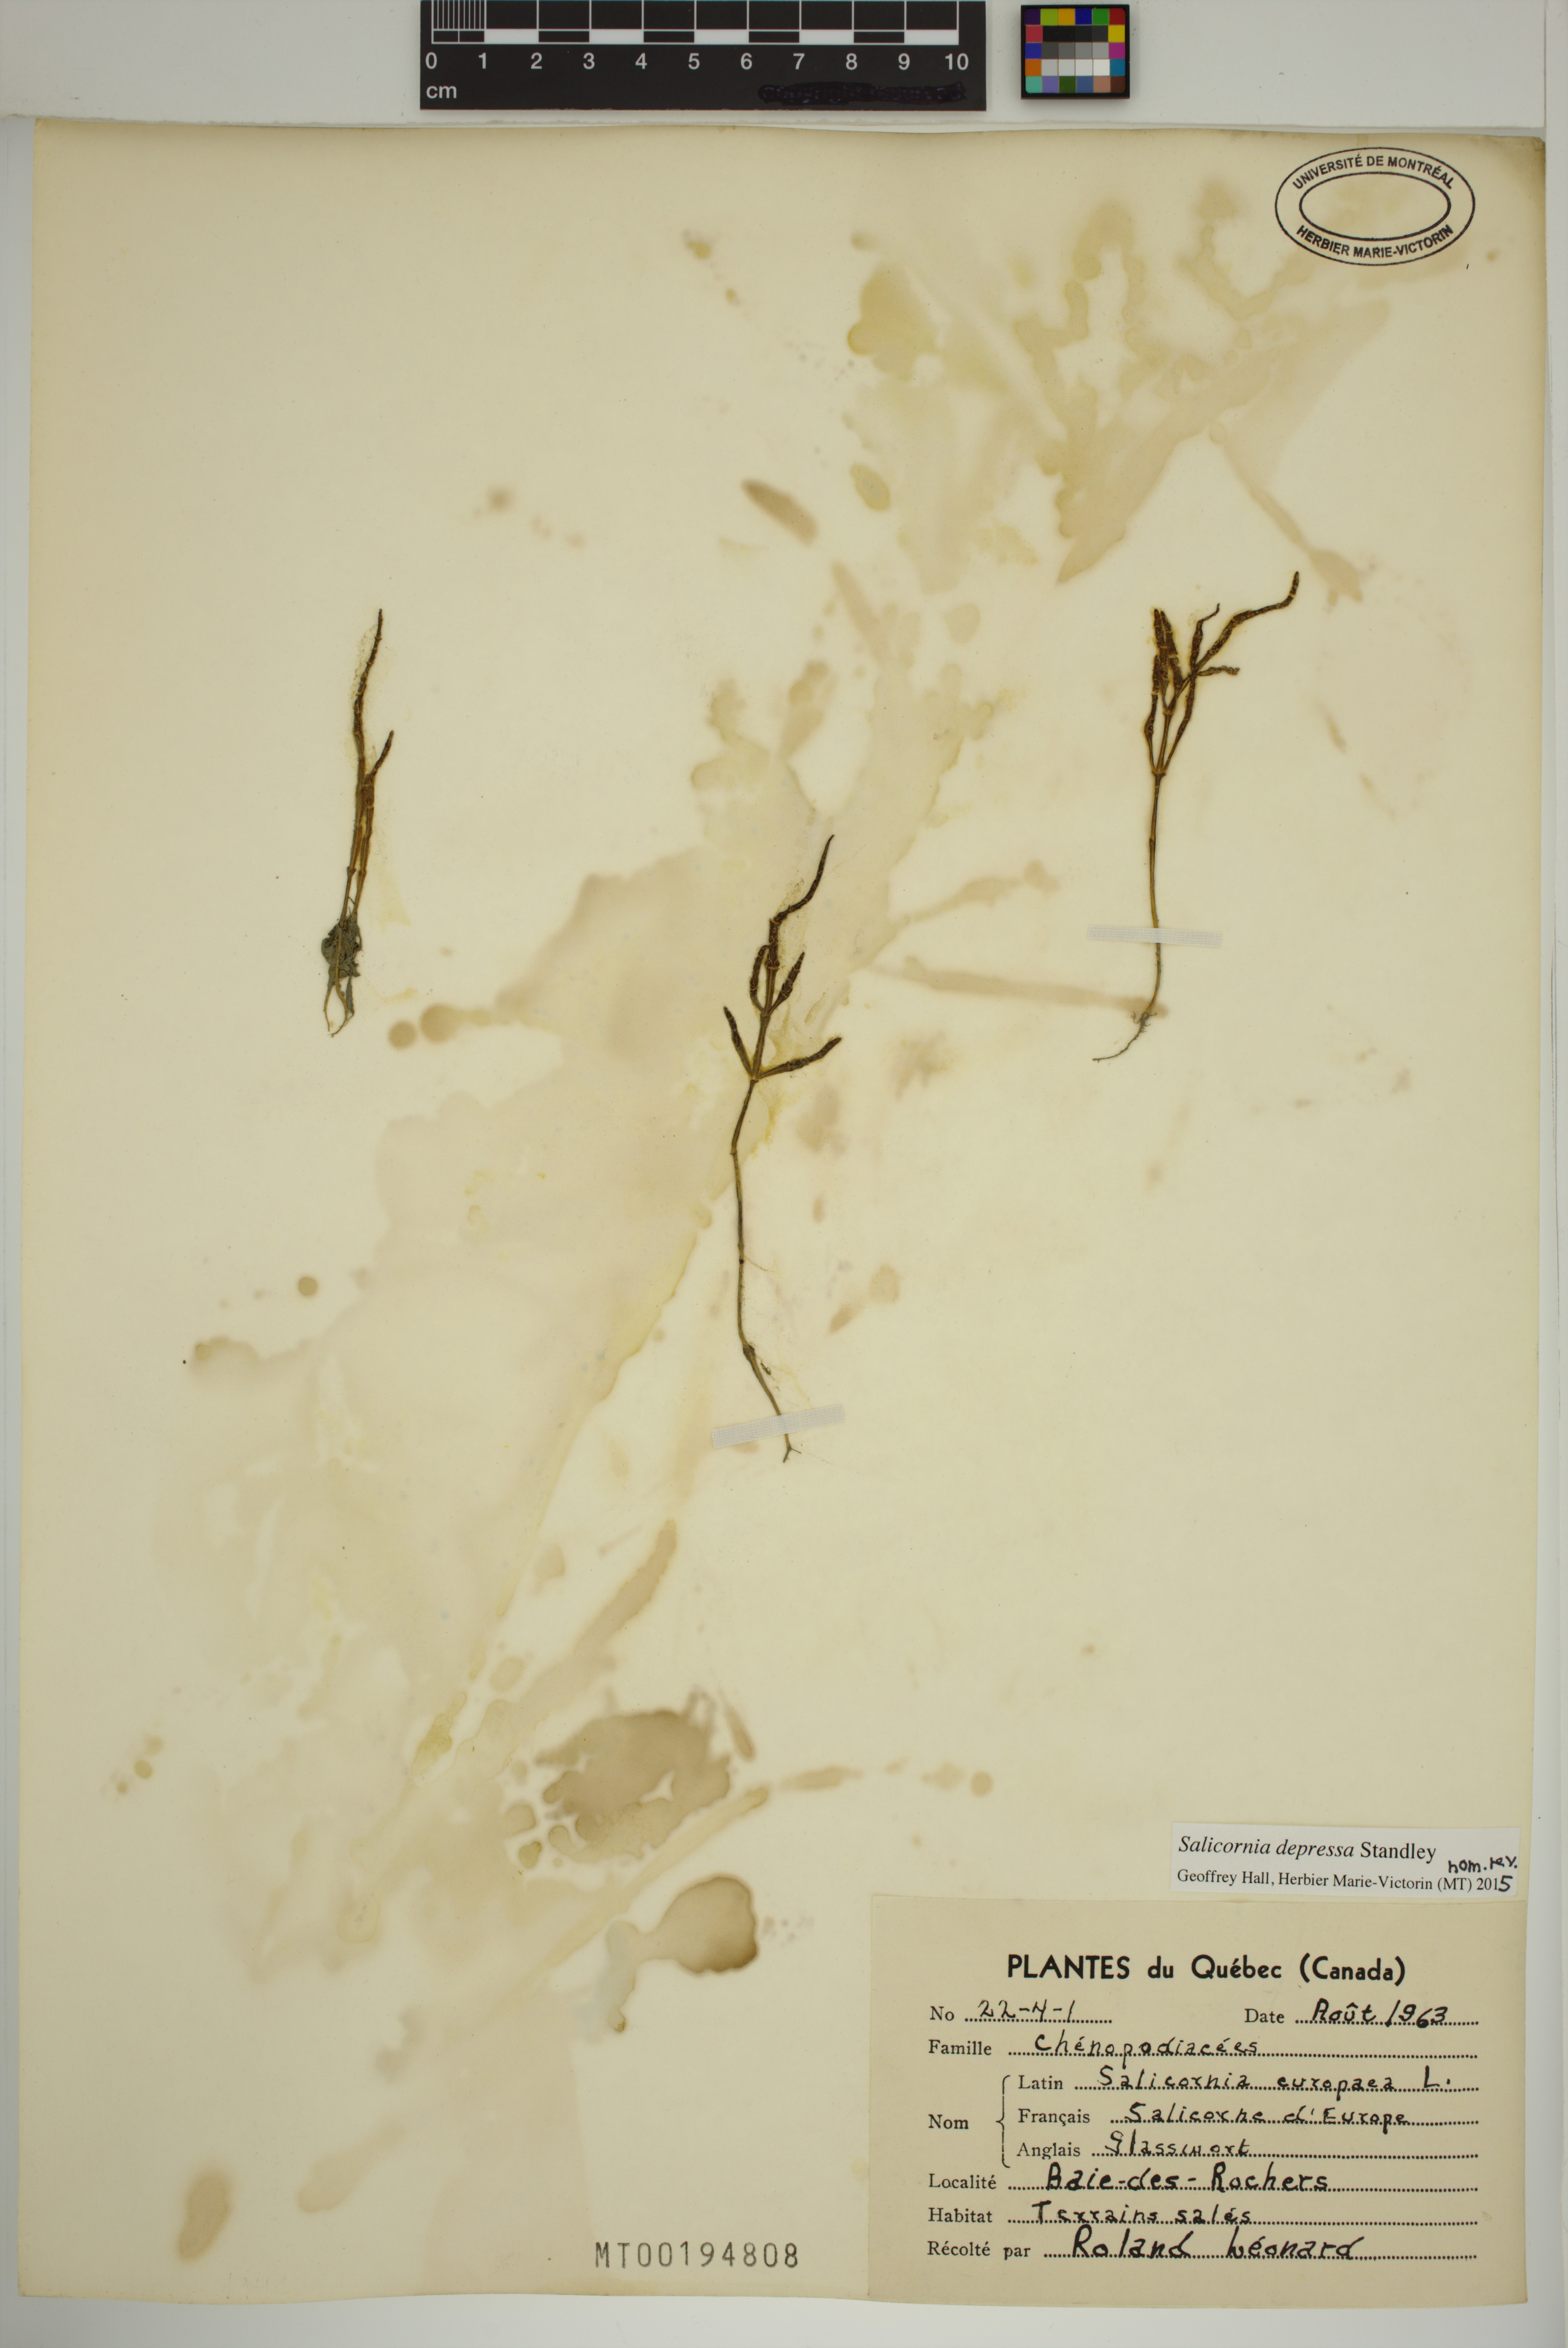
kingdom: Plantae
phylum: Tracheophyta
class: Magnoliopsida
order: Caryophyllales
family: Amaranthaceae
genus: Salicornia
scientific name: Salicornia virginica
